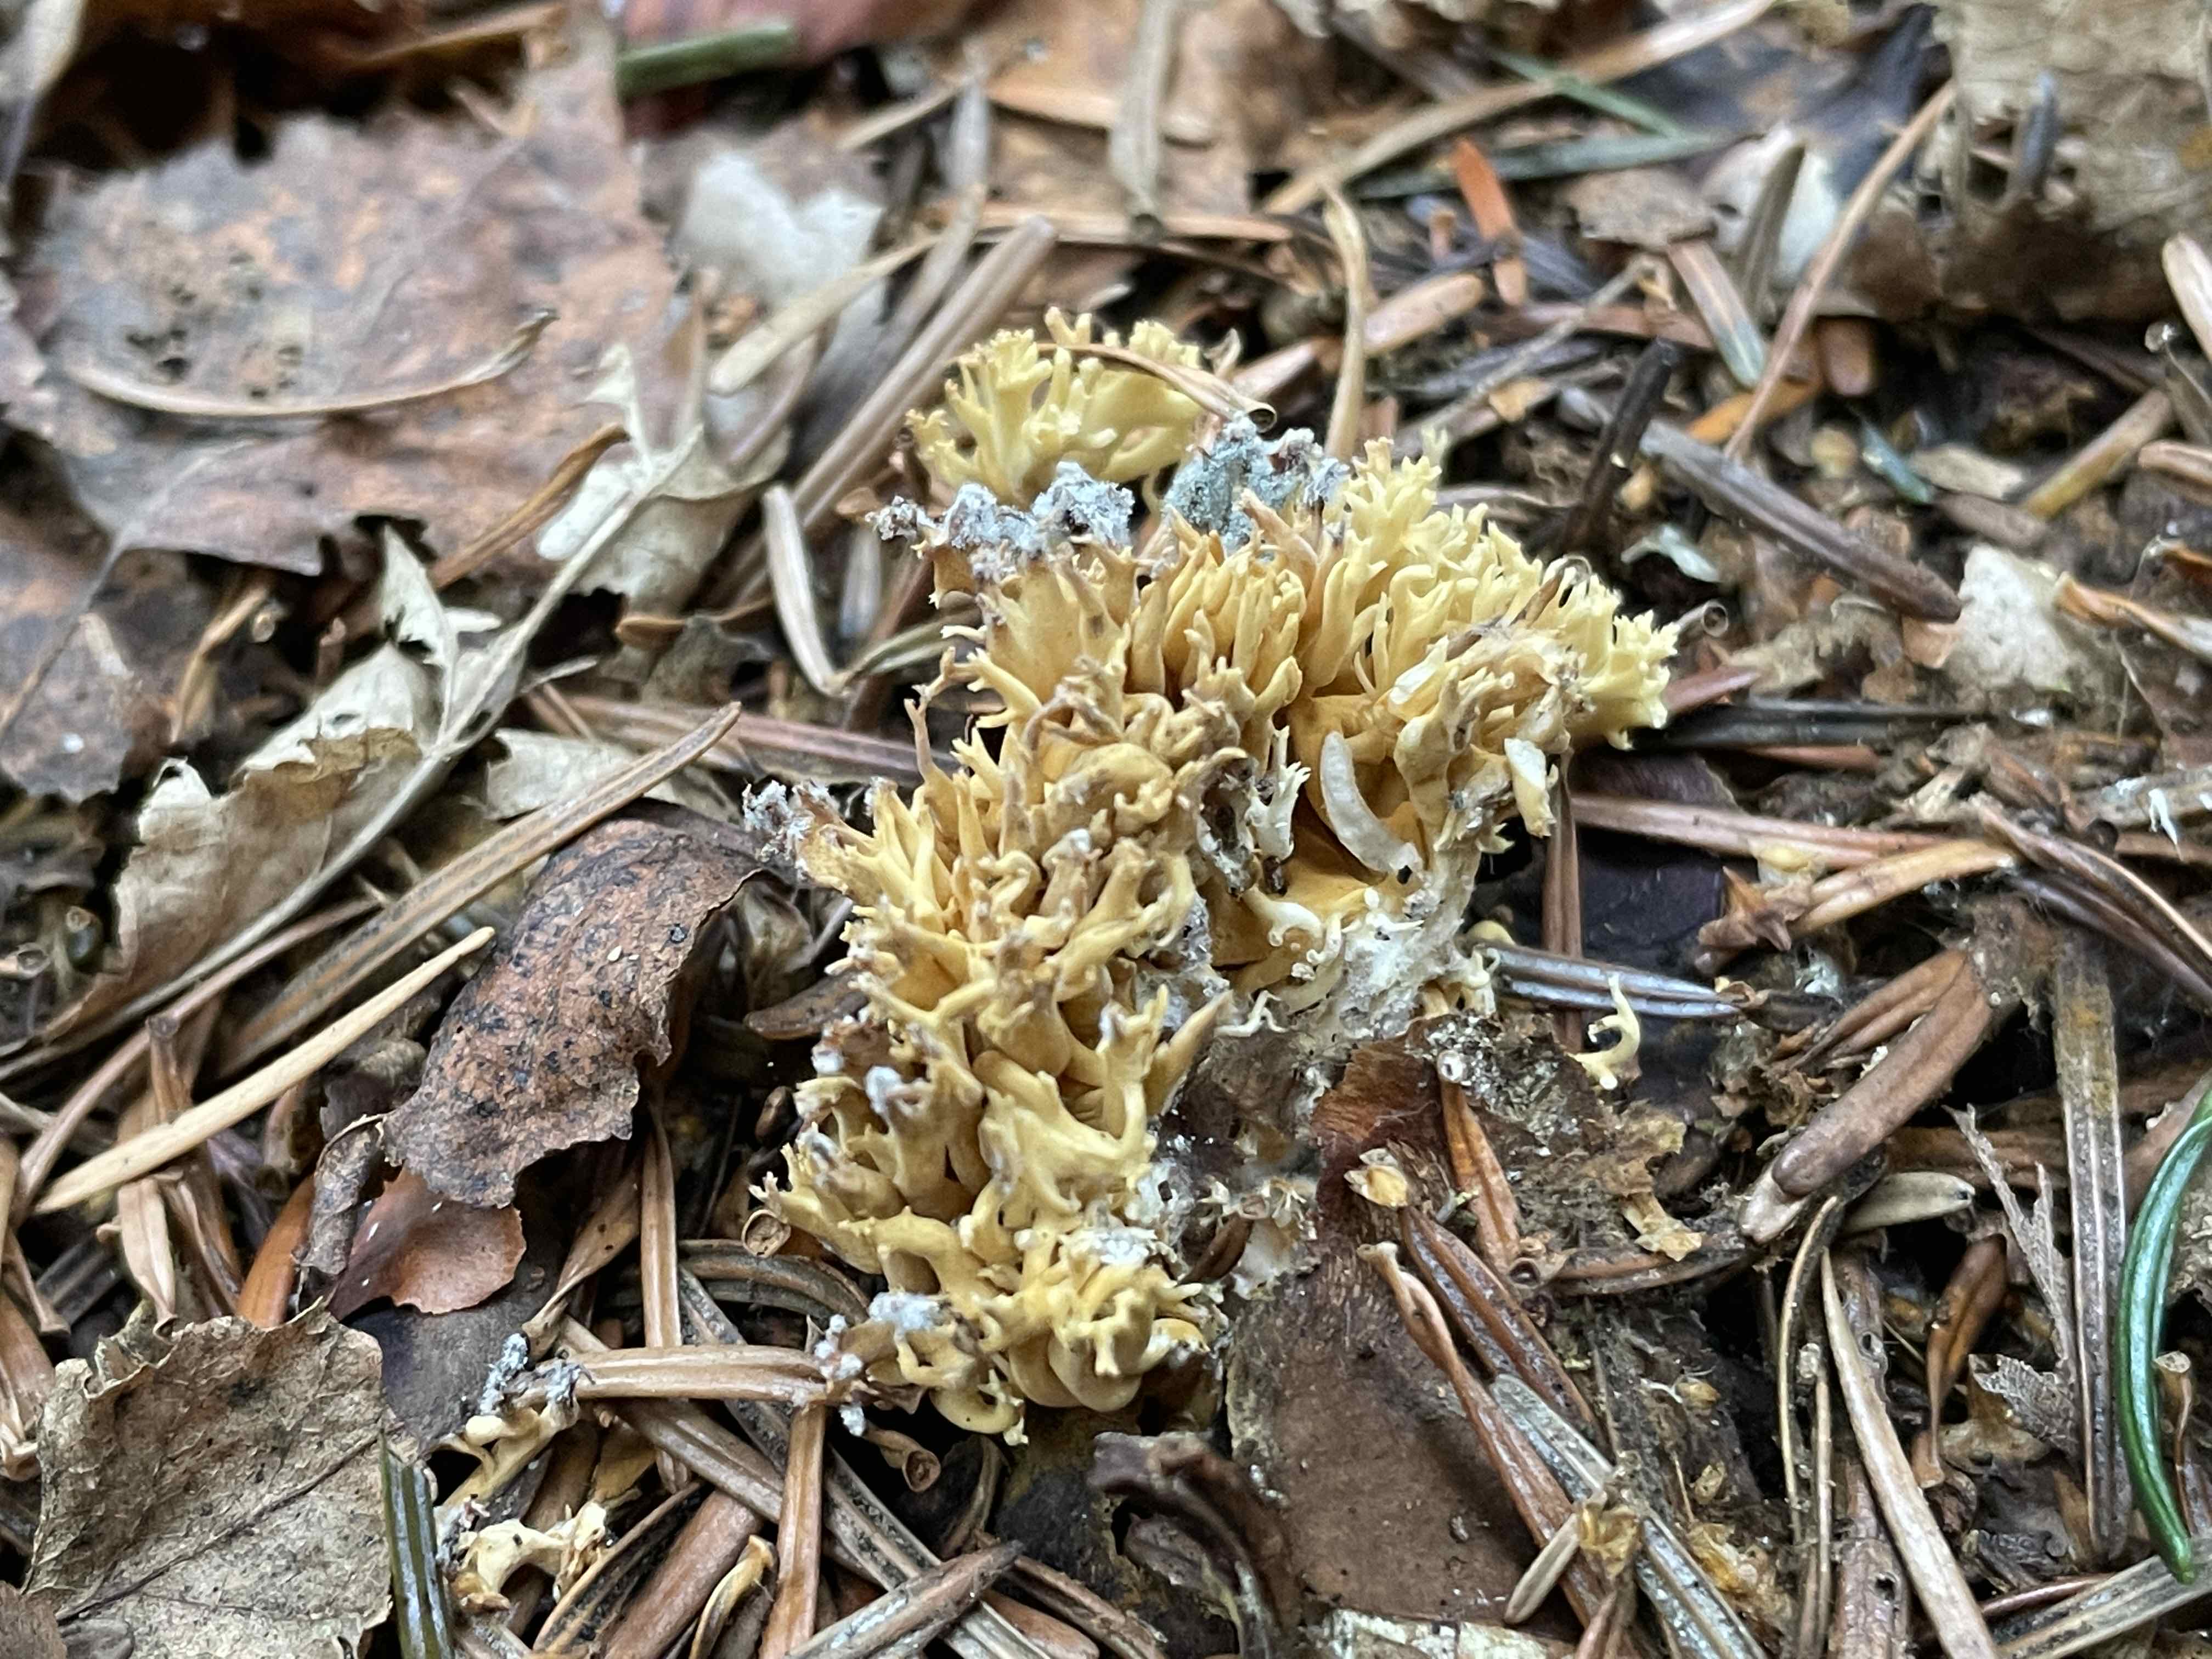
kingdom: Fungi
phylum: Basidiomycota
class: Agaricomycetes
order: Gomphales
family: Gomphaceae
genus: Phaeoclavulina
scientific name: Phaeoclavulina eumorpha
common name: gran-koralsvamp
